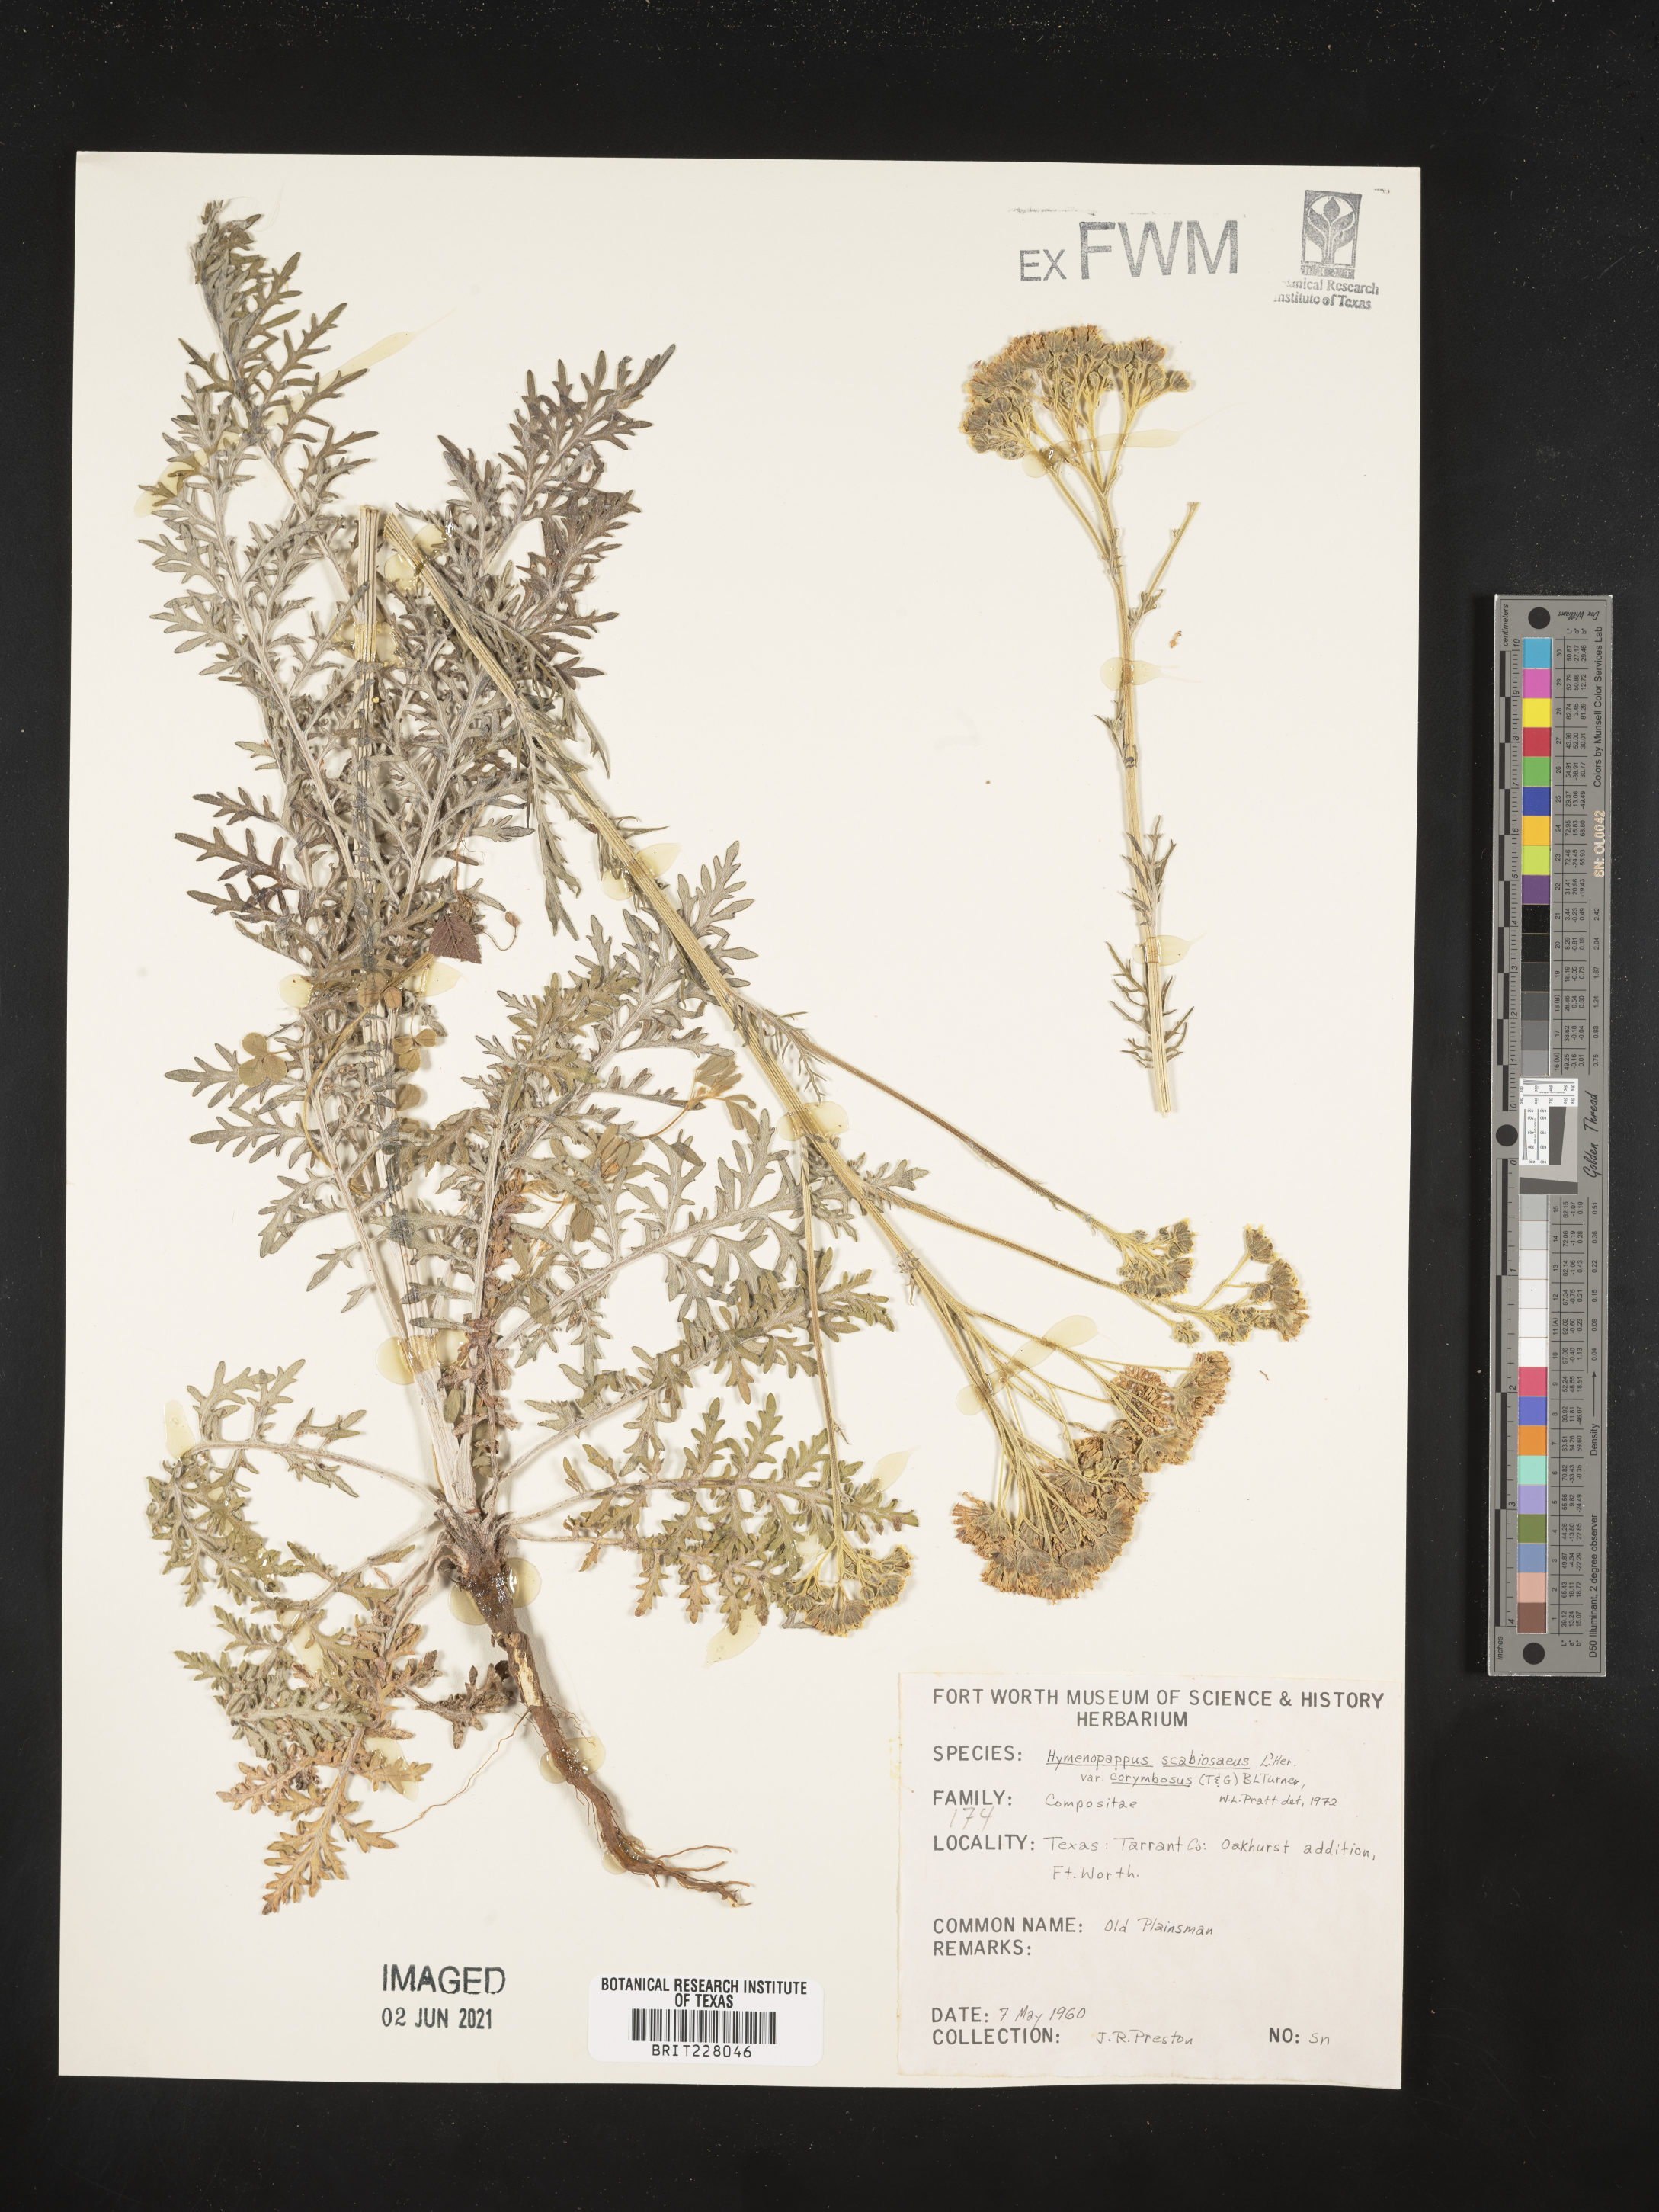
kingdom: Plantae
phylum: Tracheophyta
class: Magnoliopsida
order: Asterales
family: Asteraceae
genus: Hymenopappus
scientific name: Hymenopappus scabiosaeus
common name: Carolina woollywhite
